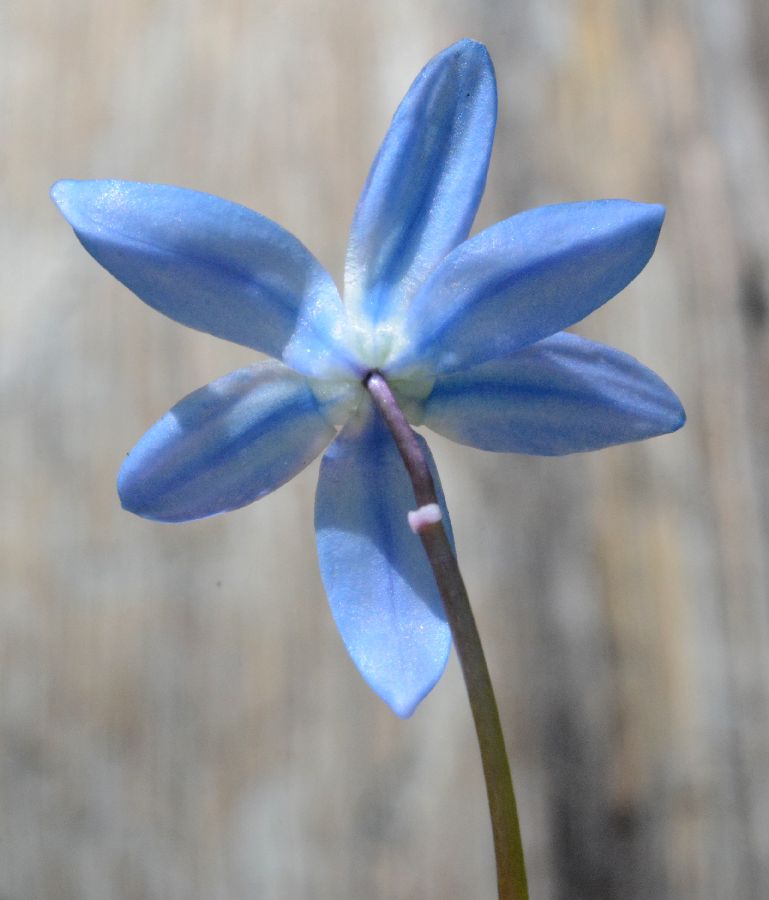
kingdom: Plantae
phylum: Tracheophyta
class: Liliopsida
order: Asparagales
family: Asparagaceae
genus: Scilla
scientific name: Scilla siberica
